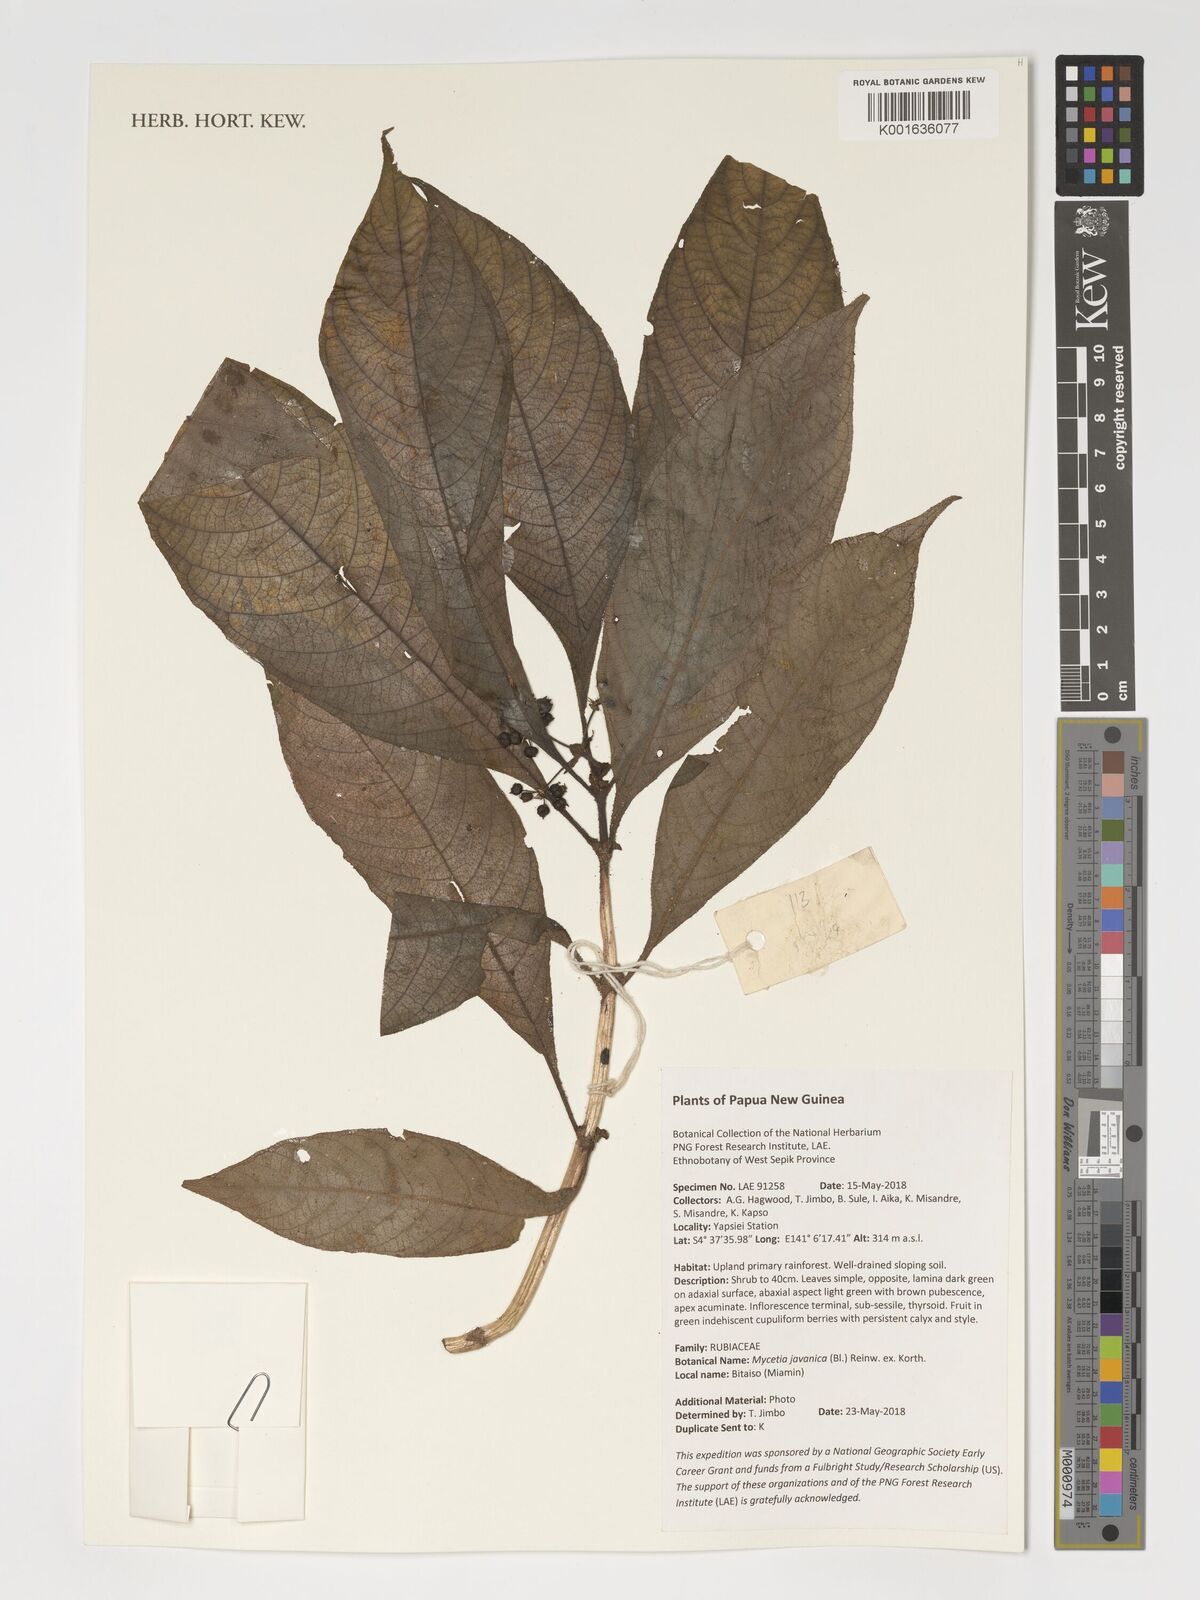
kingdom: Plantae
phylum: Tracheophyta
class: Magnoliopsida
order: Gentianales
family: Rubiaceae
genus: Mycetia
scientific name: Mycetia javanica
